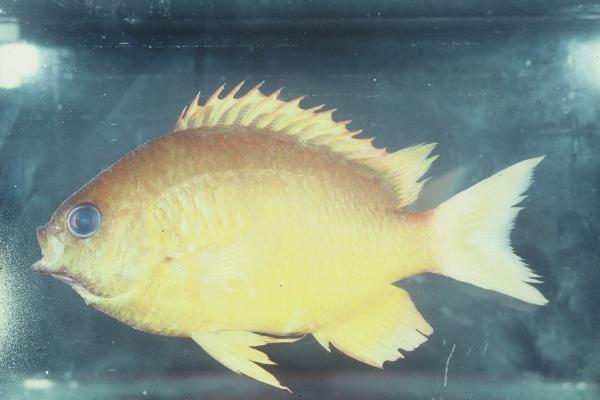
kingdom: Animalia
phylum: Chordata
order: Perciformes
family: Pomacentridae
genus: Chromis
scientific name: Chromis analis
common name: Yellow chromis
